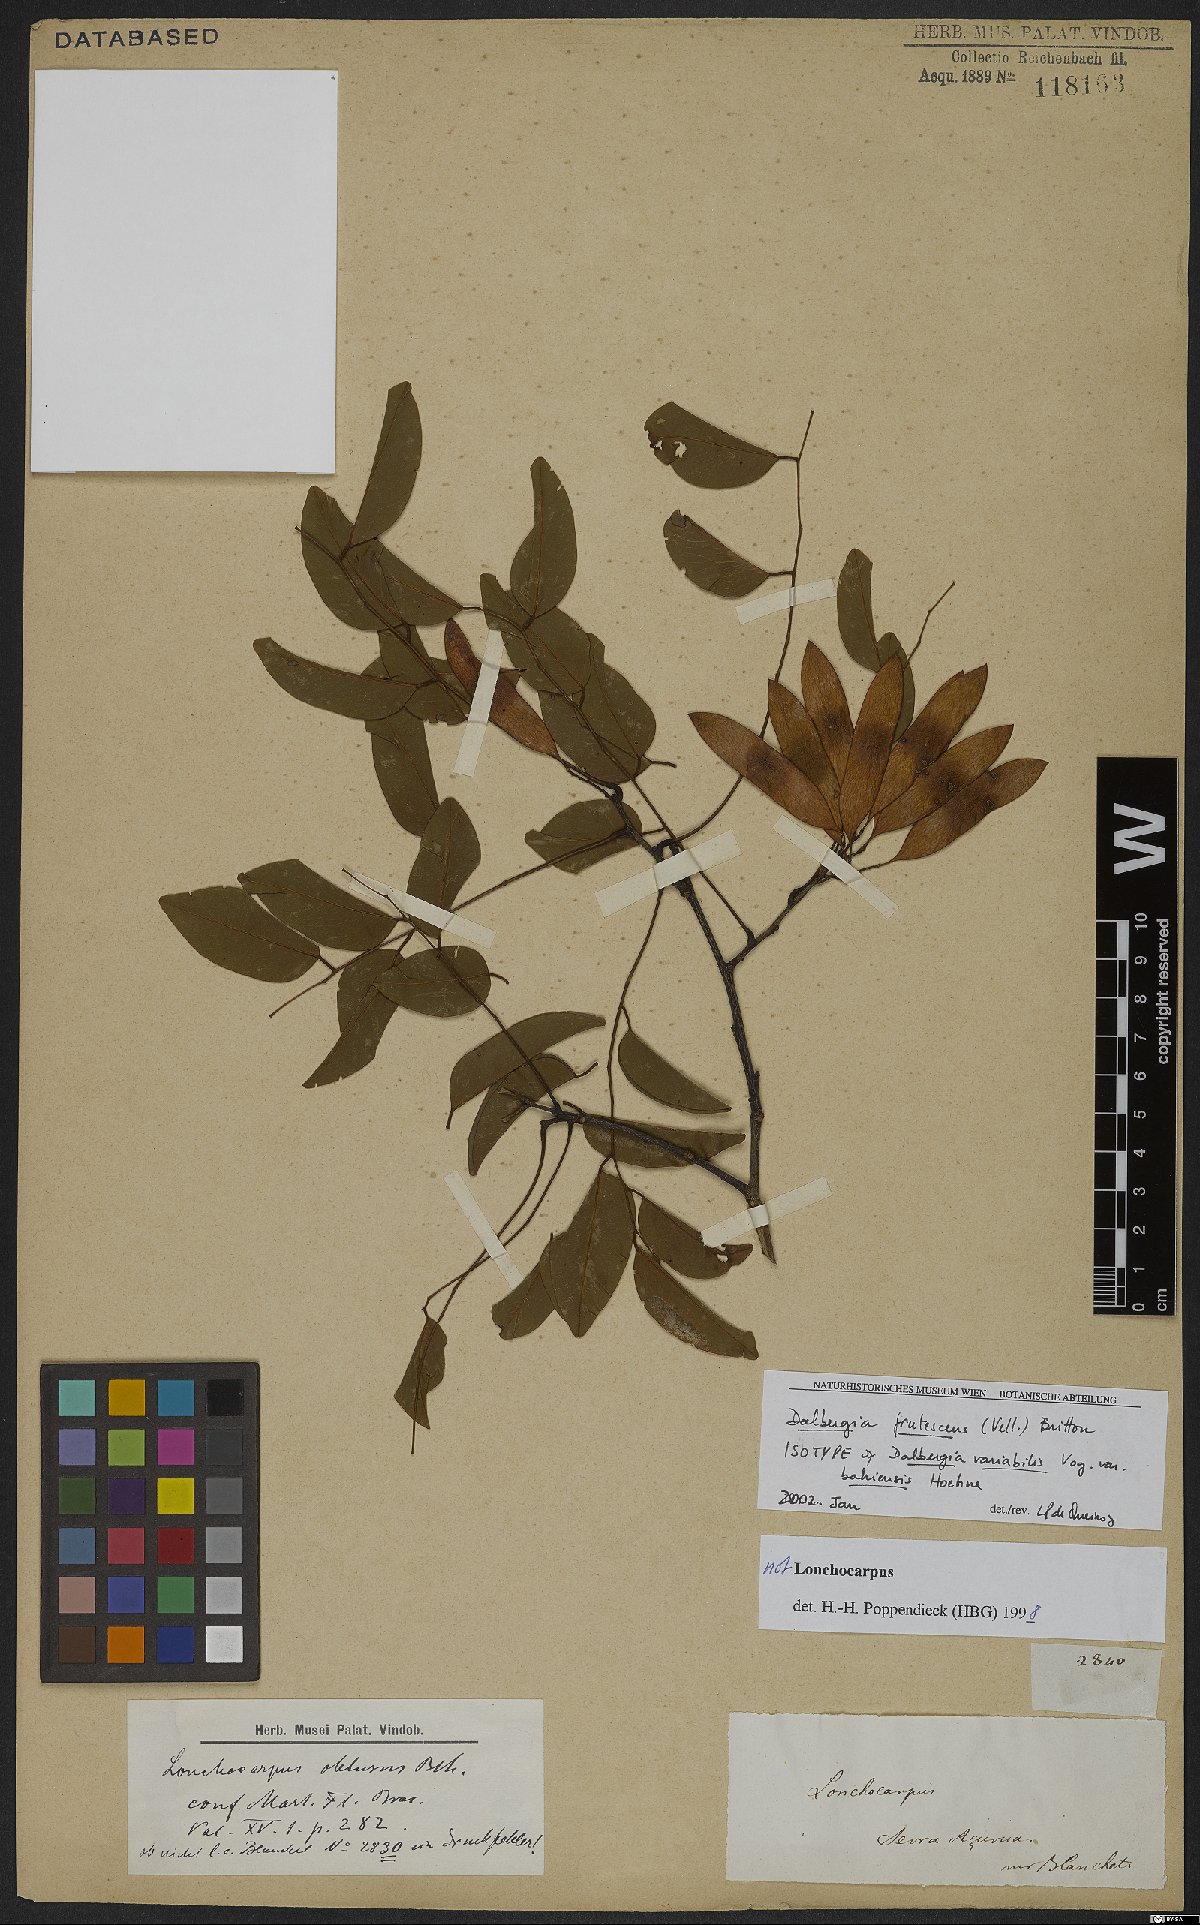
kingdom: Plantae
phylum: Tracheophyta
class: Magnoliopsida
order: Fabales
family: Fabaceae
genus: Dalbergia
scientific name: Dalbergia frutescens
